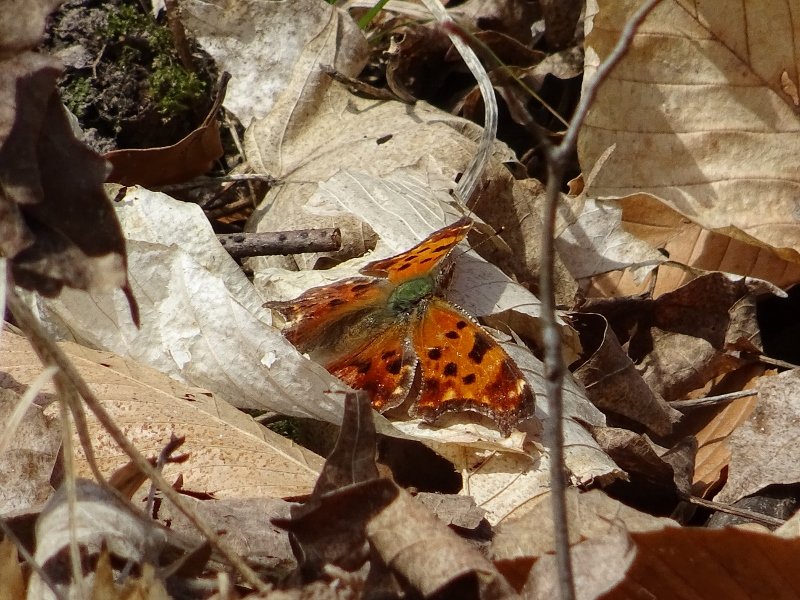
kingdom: Animalia
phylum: Arthropoda
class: Insecta
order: Lepidoptera
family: Nymphalidae
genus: Polygonia
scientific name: Polygonia comma
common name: Eastern Comma
